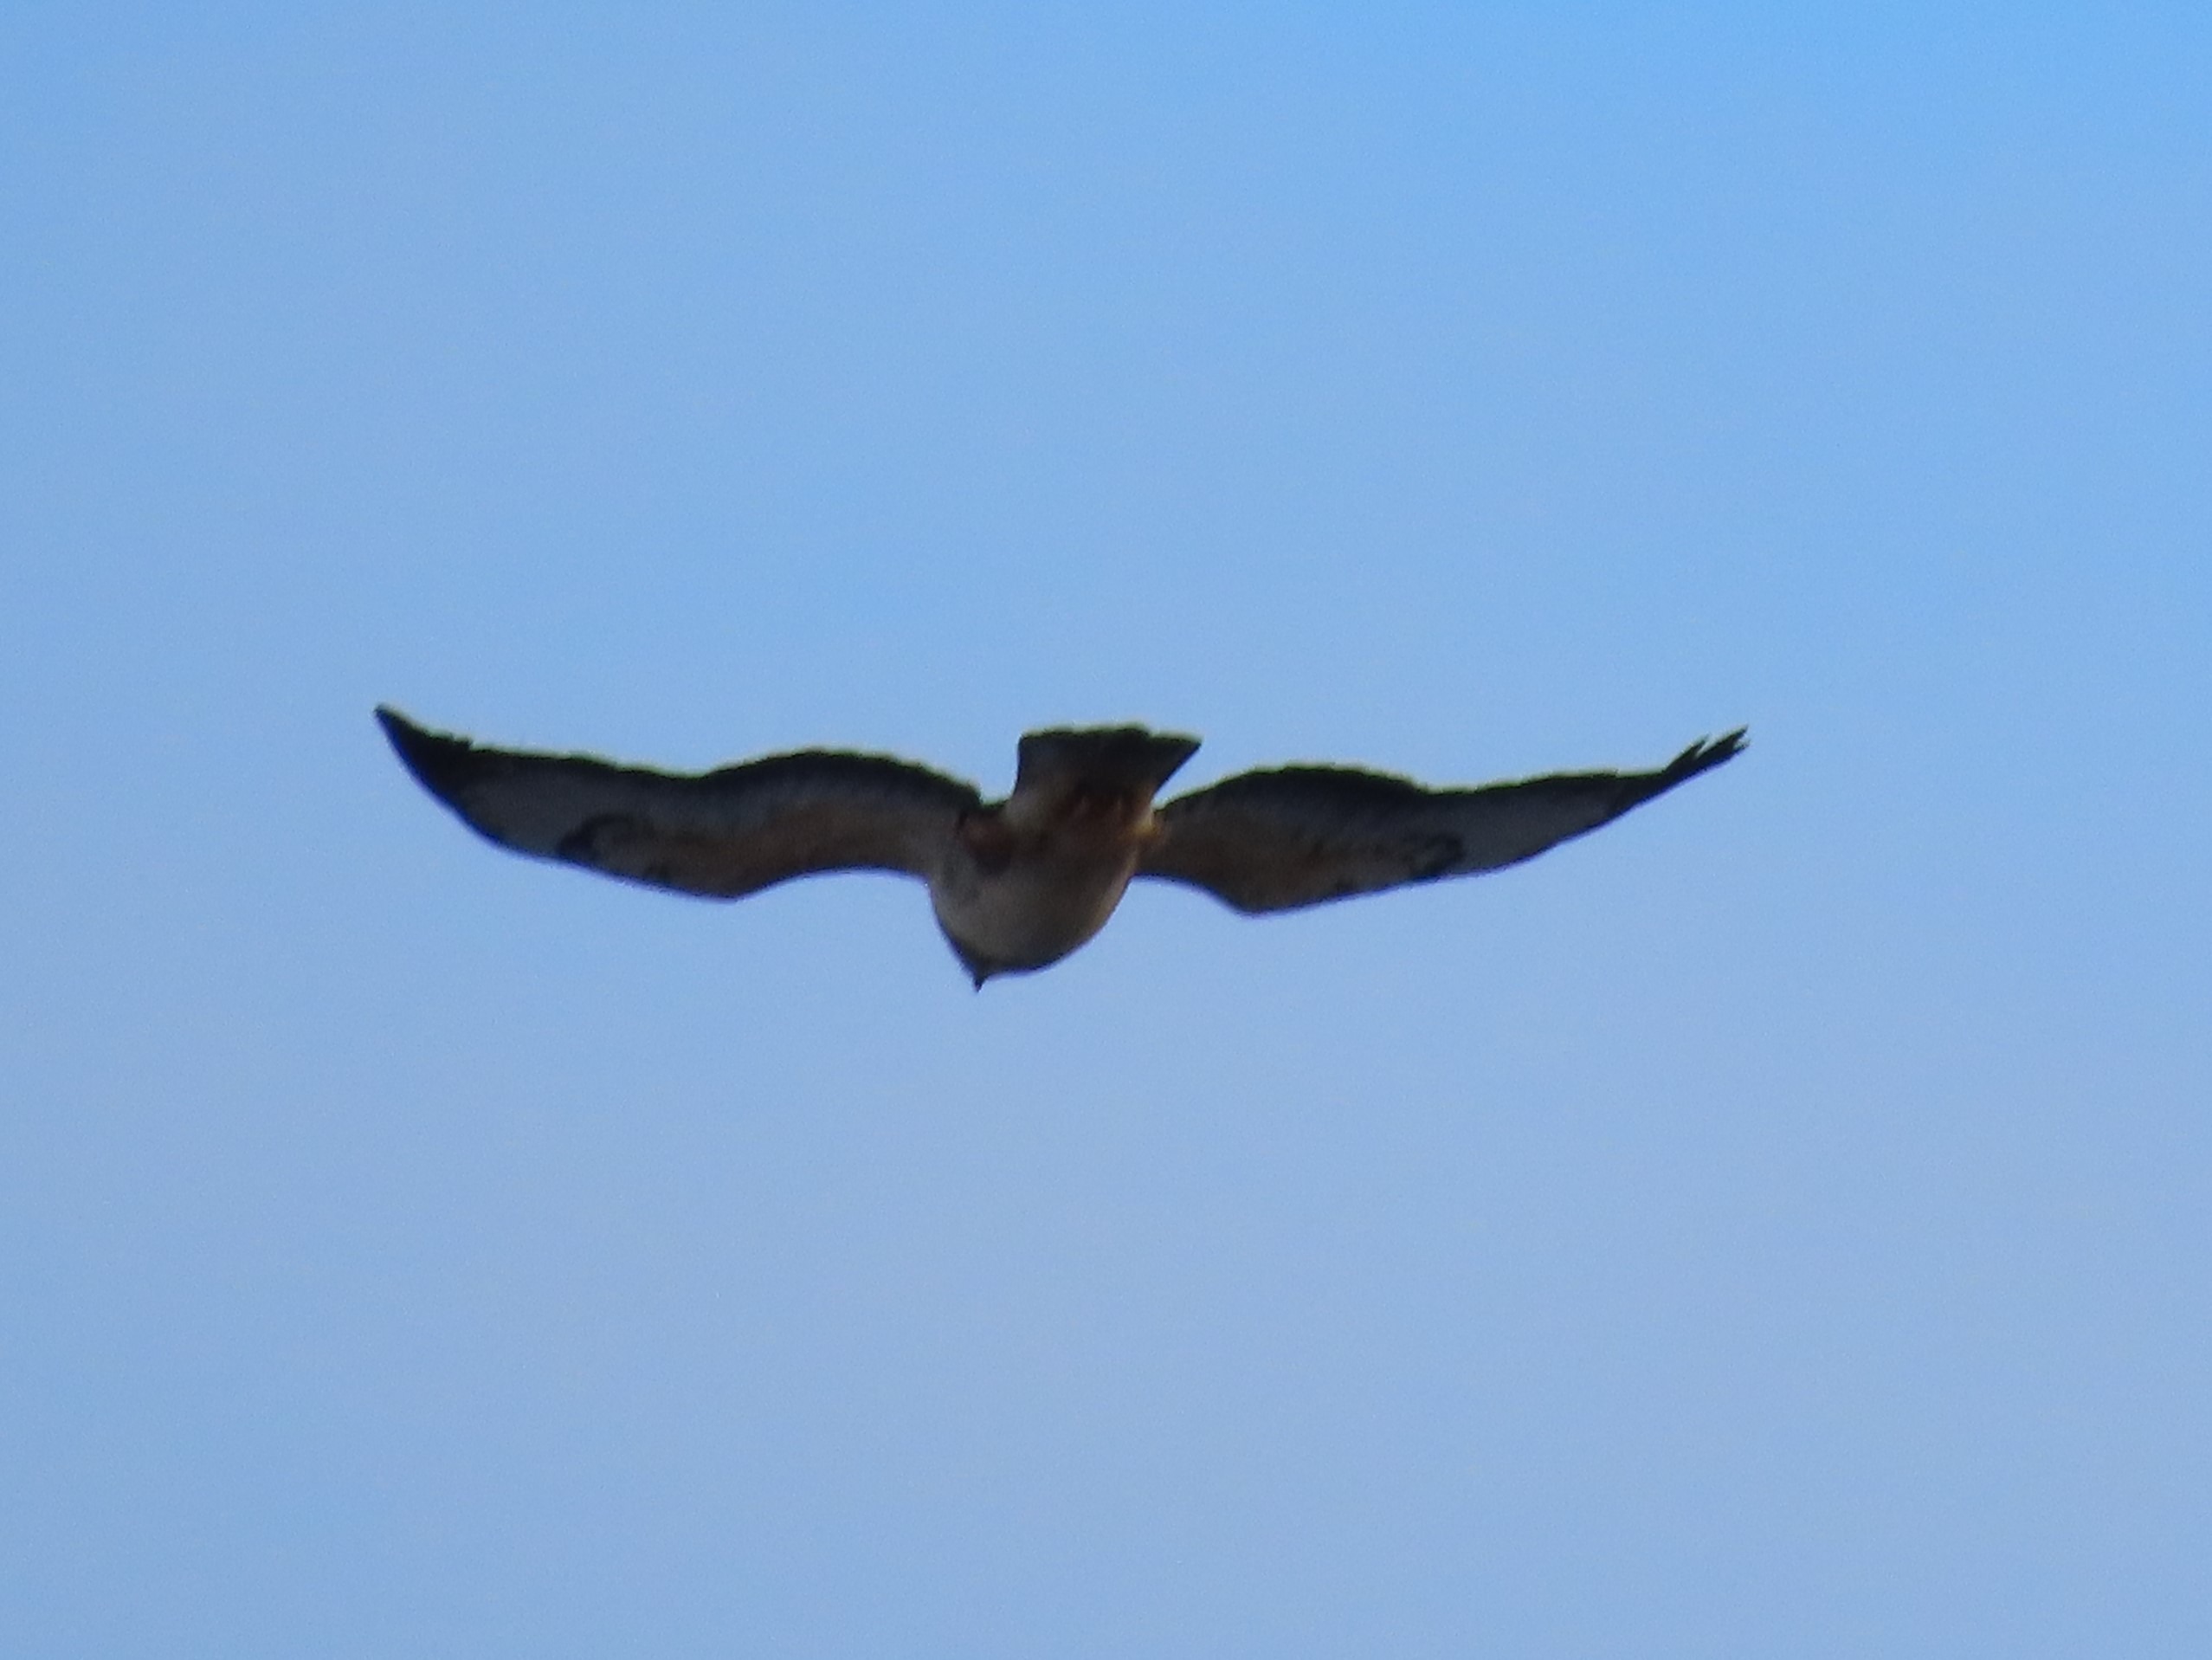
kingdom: Animalia
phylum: Chordata
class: Aves
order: Accipitriformes
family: Accipitridae
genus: Buteo
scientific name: Buteo buteo
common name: Musvåge
